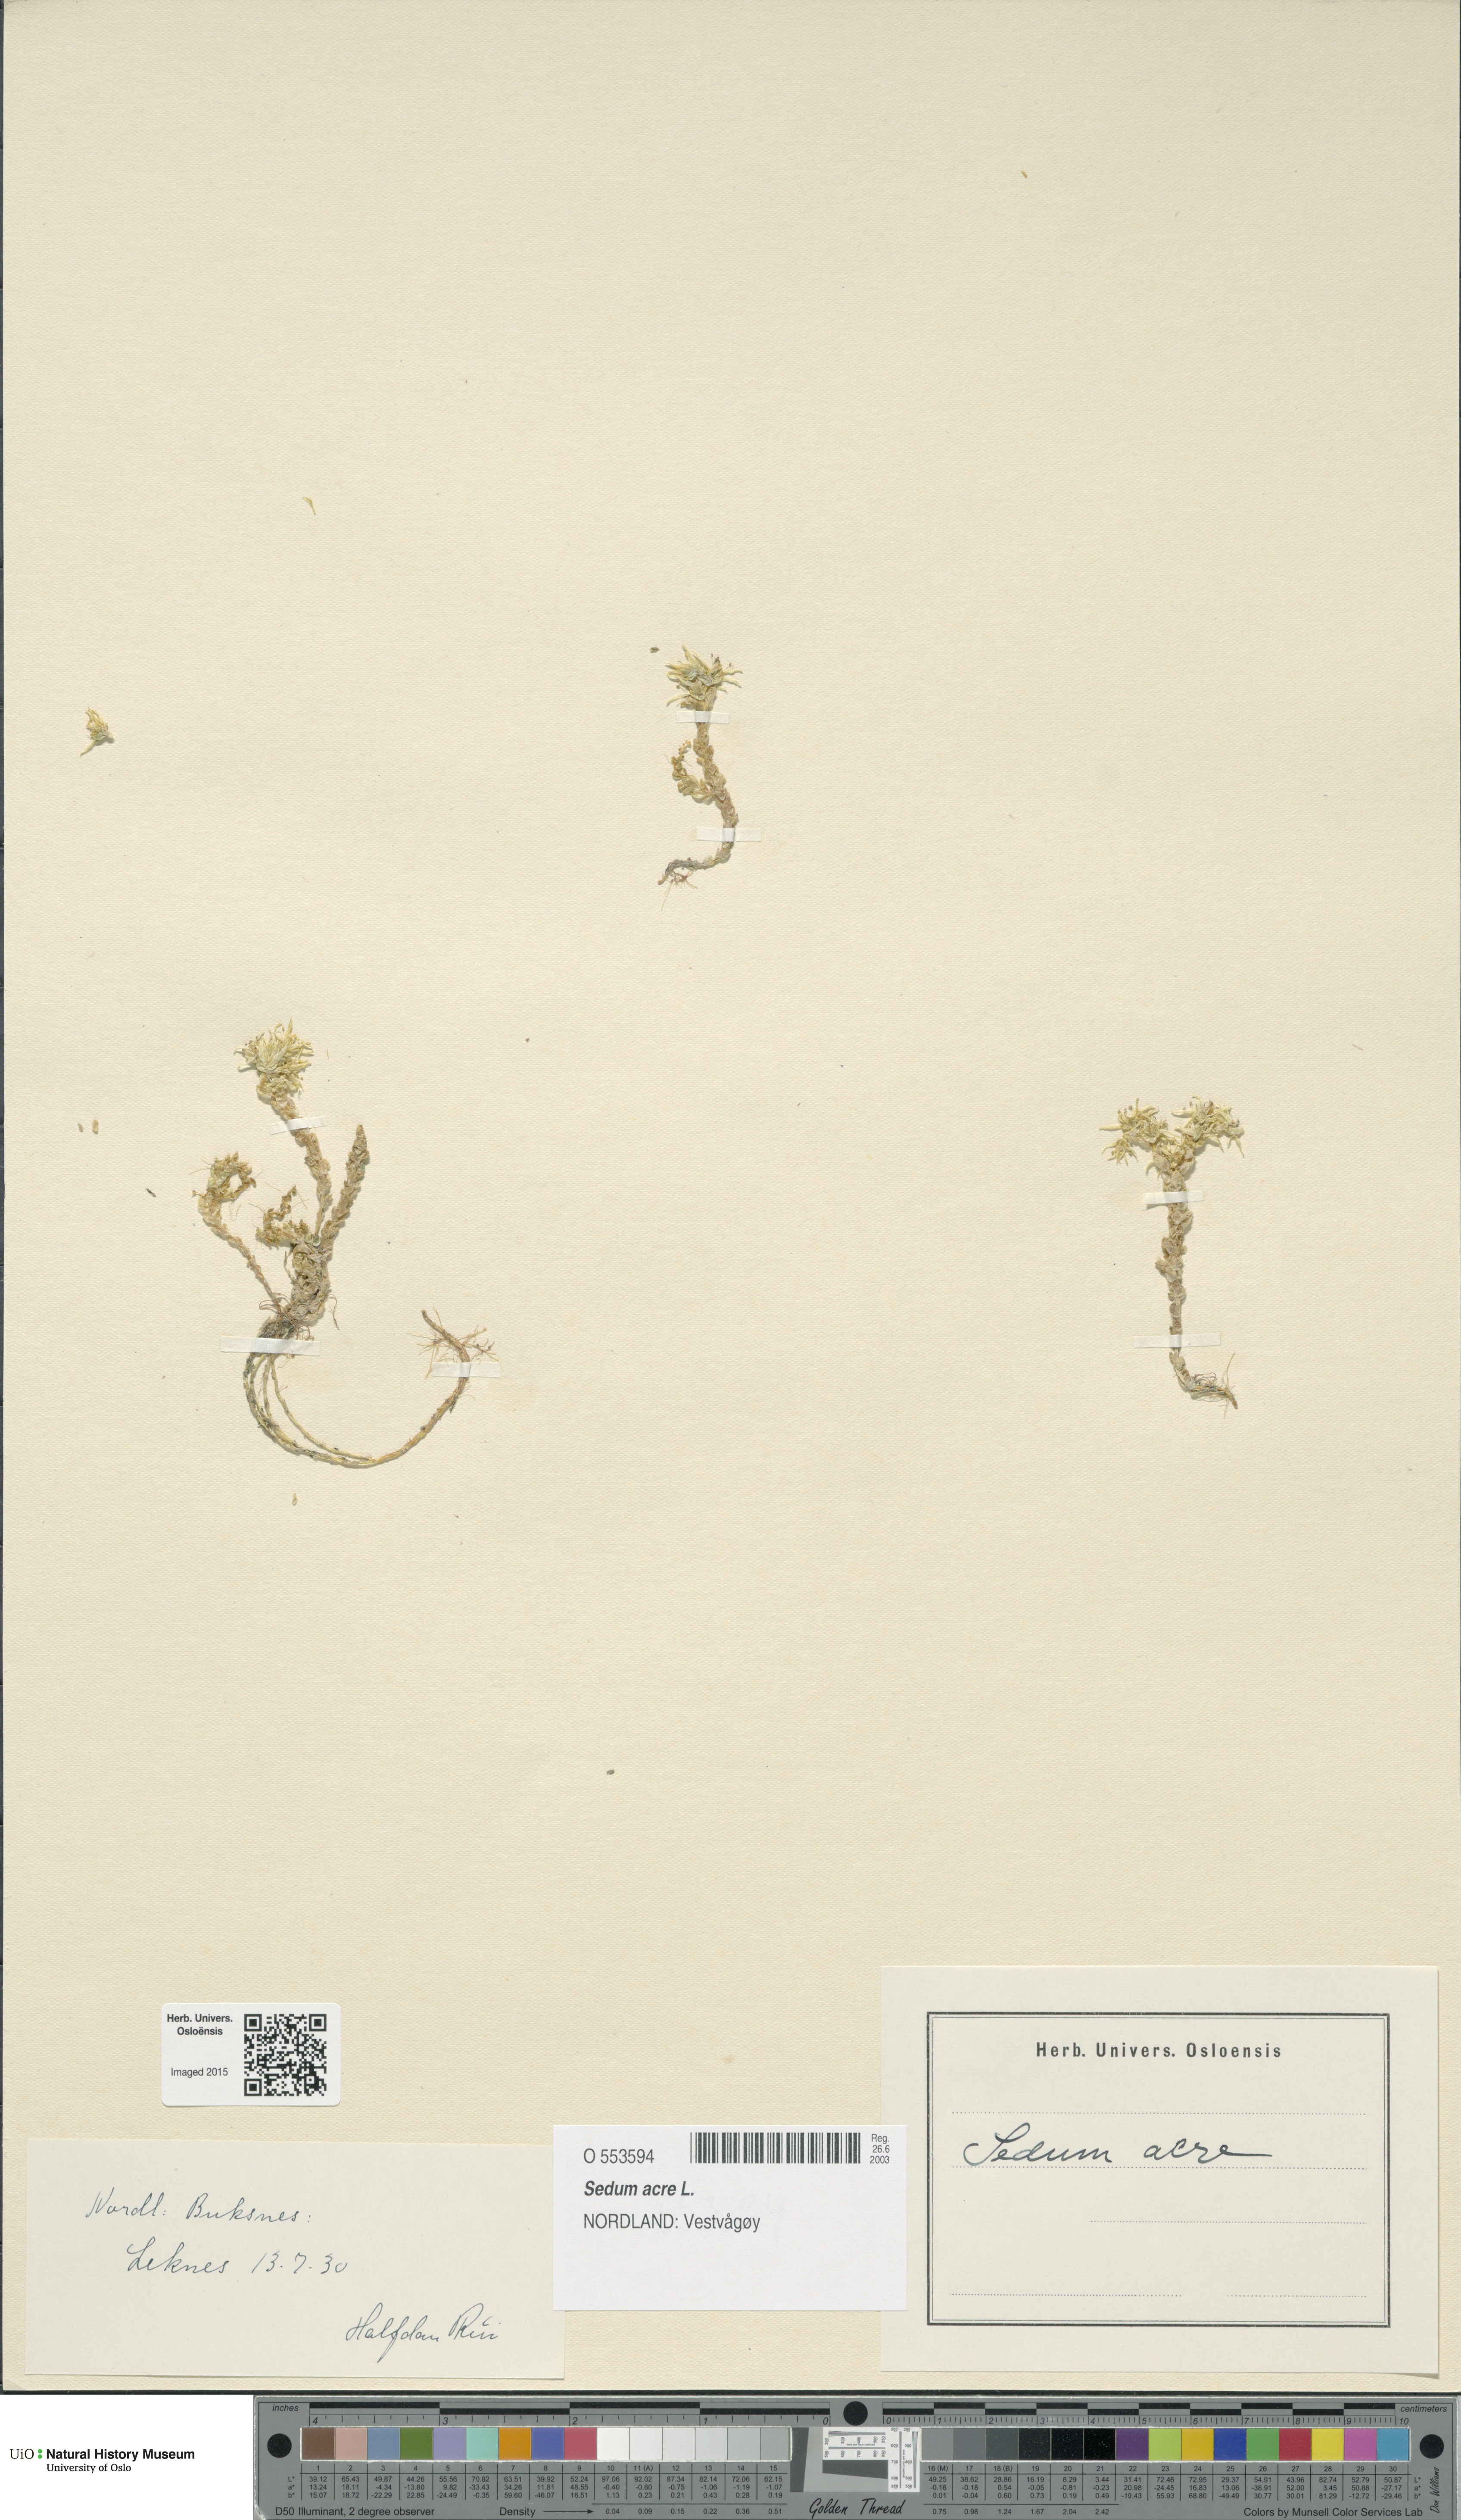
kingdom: Plantae
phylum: Tracheophyta
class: Magnoliopsida
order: Saxifragales
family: Crassulaceae
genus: Sedum
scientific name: Sedum acre
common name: Biting stonecrop
